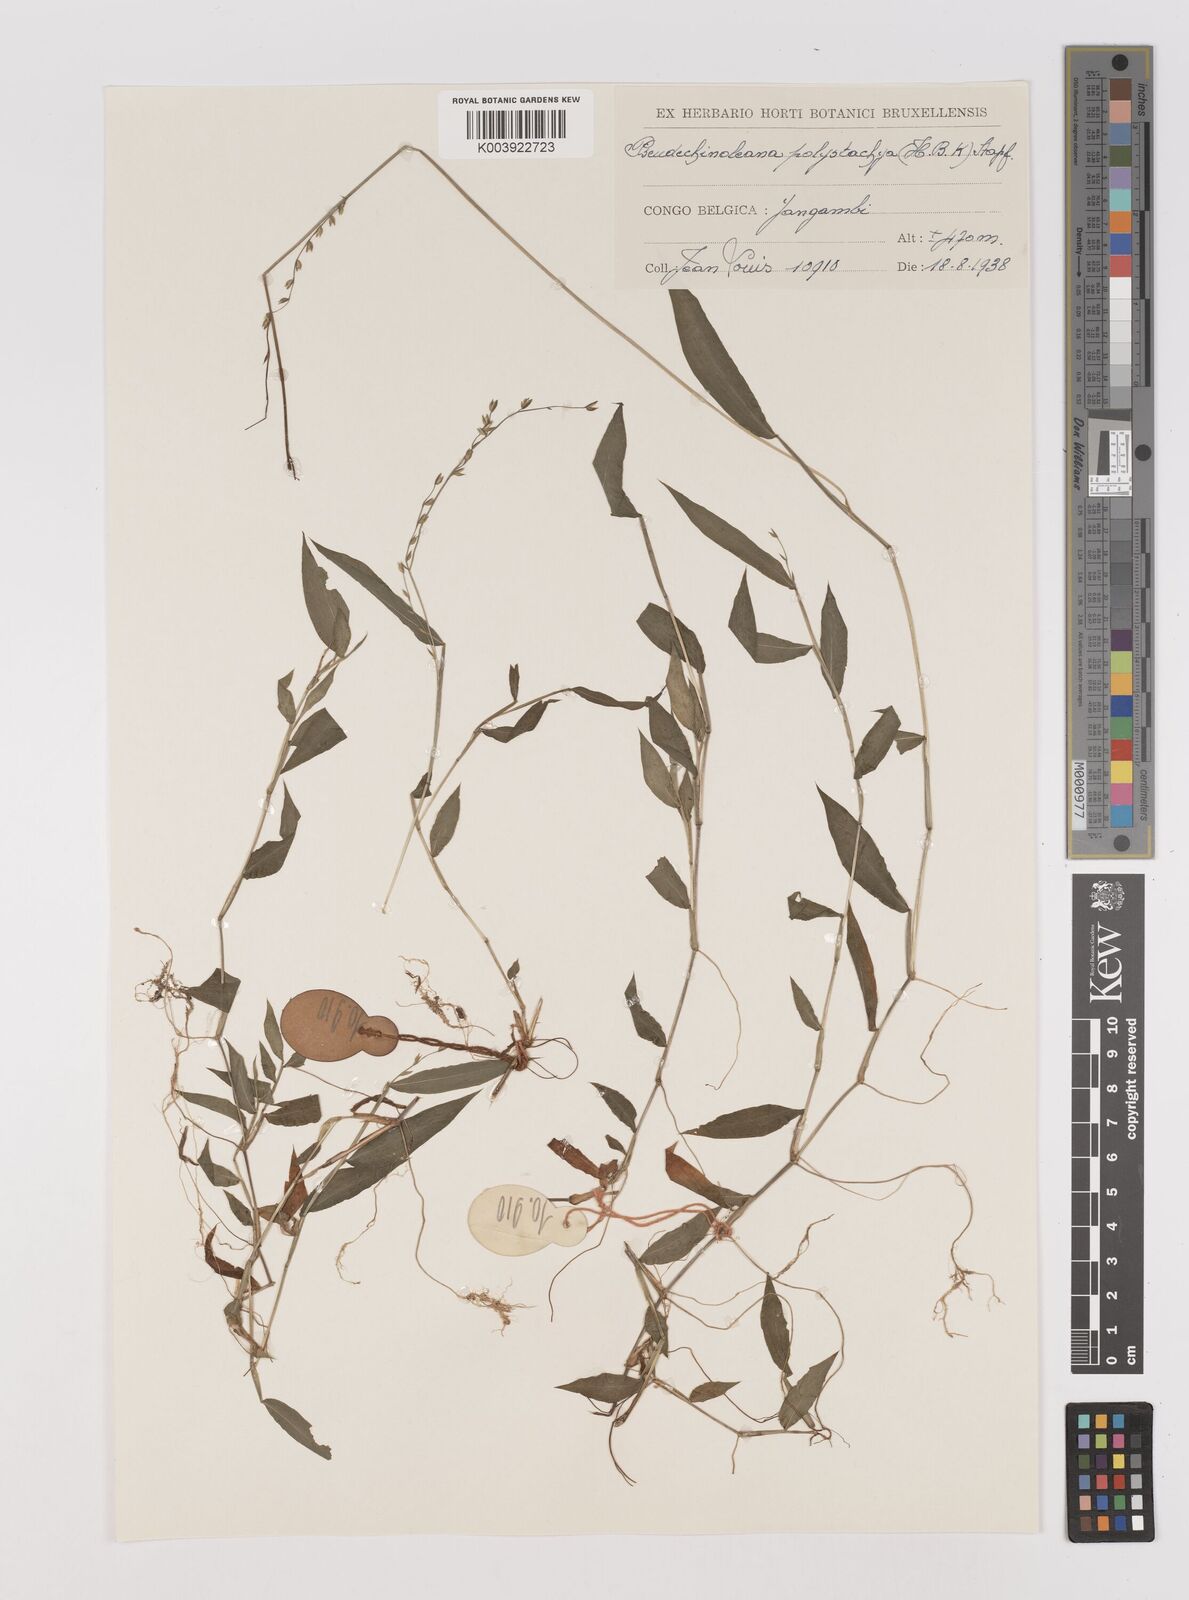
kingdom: Plantae
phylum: Tracheophyta
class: Liliopsida
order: Poales
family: Poaceae
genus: Pseudechinolaena
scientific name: Pseudechinolaena polystachya
